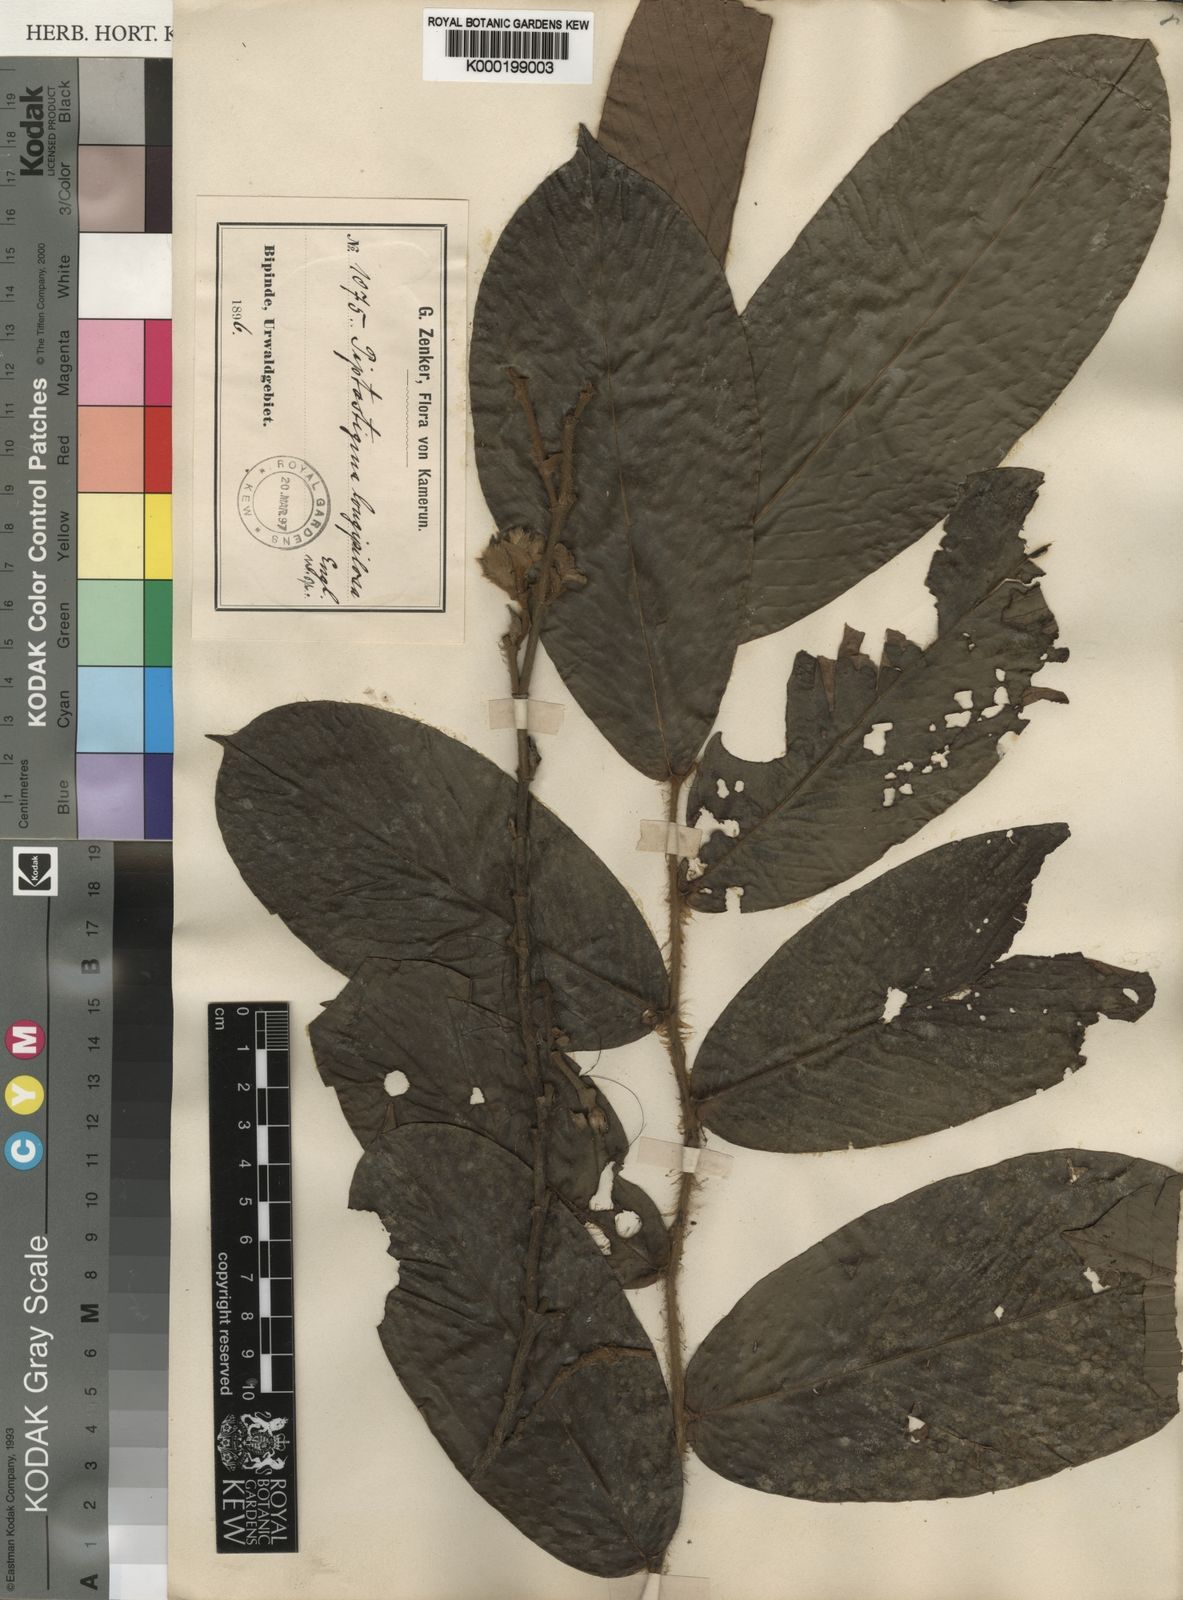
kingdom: Plantae
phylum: Tracheophyta
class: Magnoliopsida
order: Magnoliales
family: Annonaceae
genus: Piptostigma
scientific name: Piptostigma longepilosum
